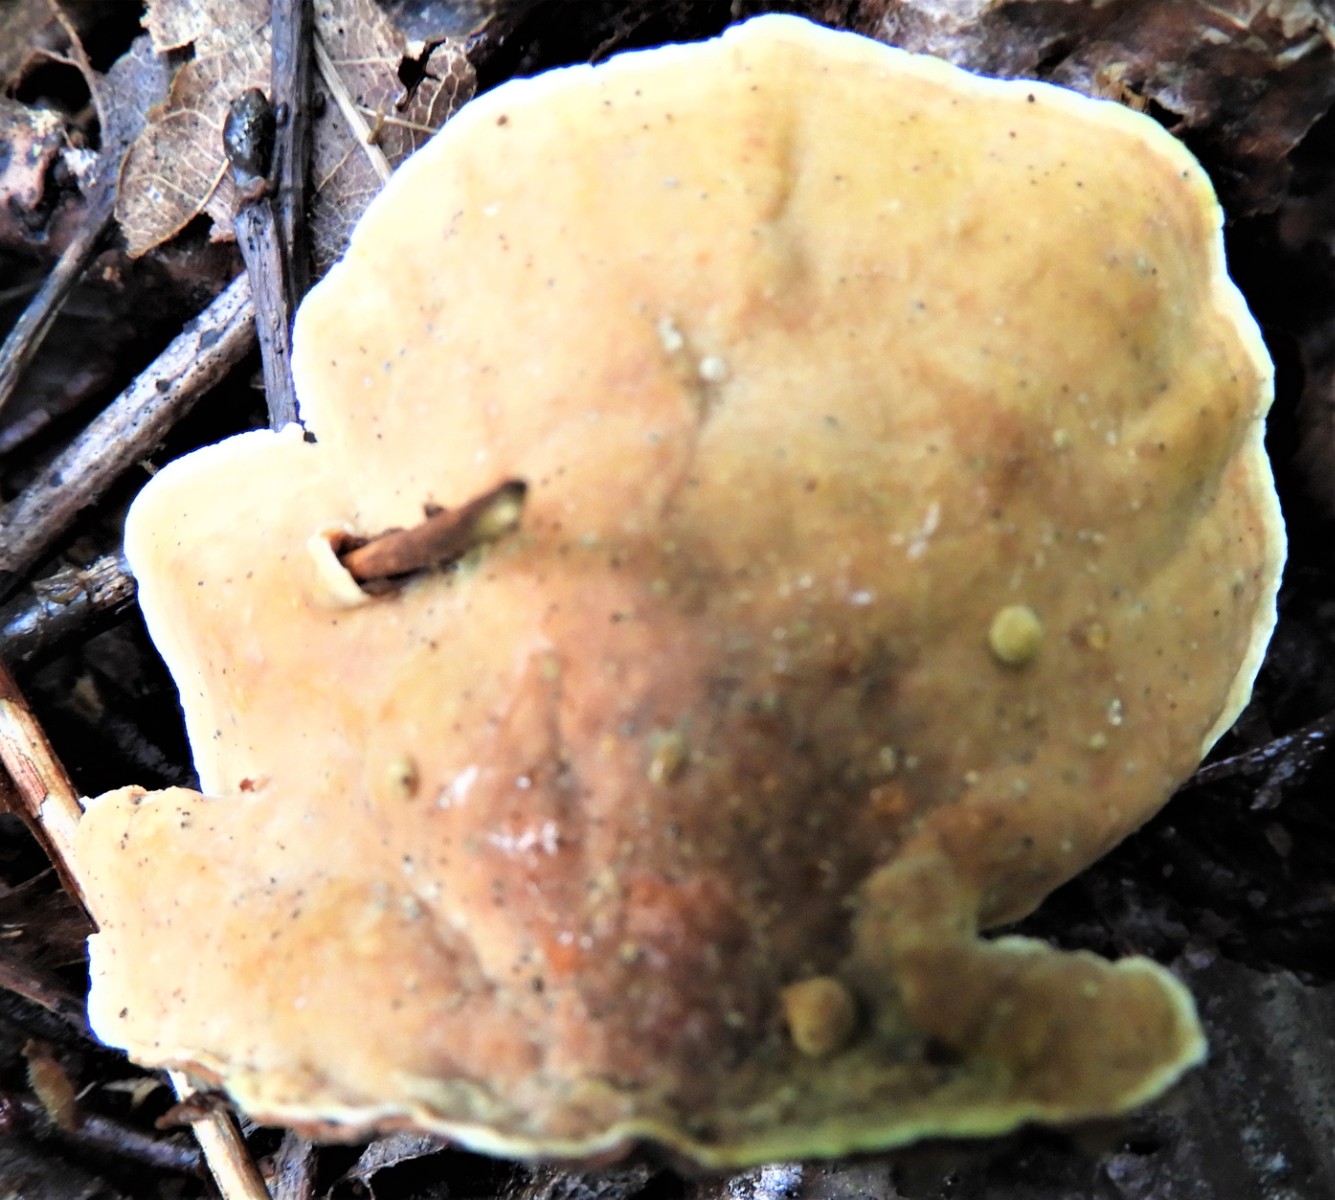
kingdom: Fungi
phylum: Basidiomycota
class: Agaricomycetes
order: Russulales
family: Stereaceae
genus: Stereum
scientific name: Stereum subtomentosum
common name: smuk lædersvamp
